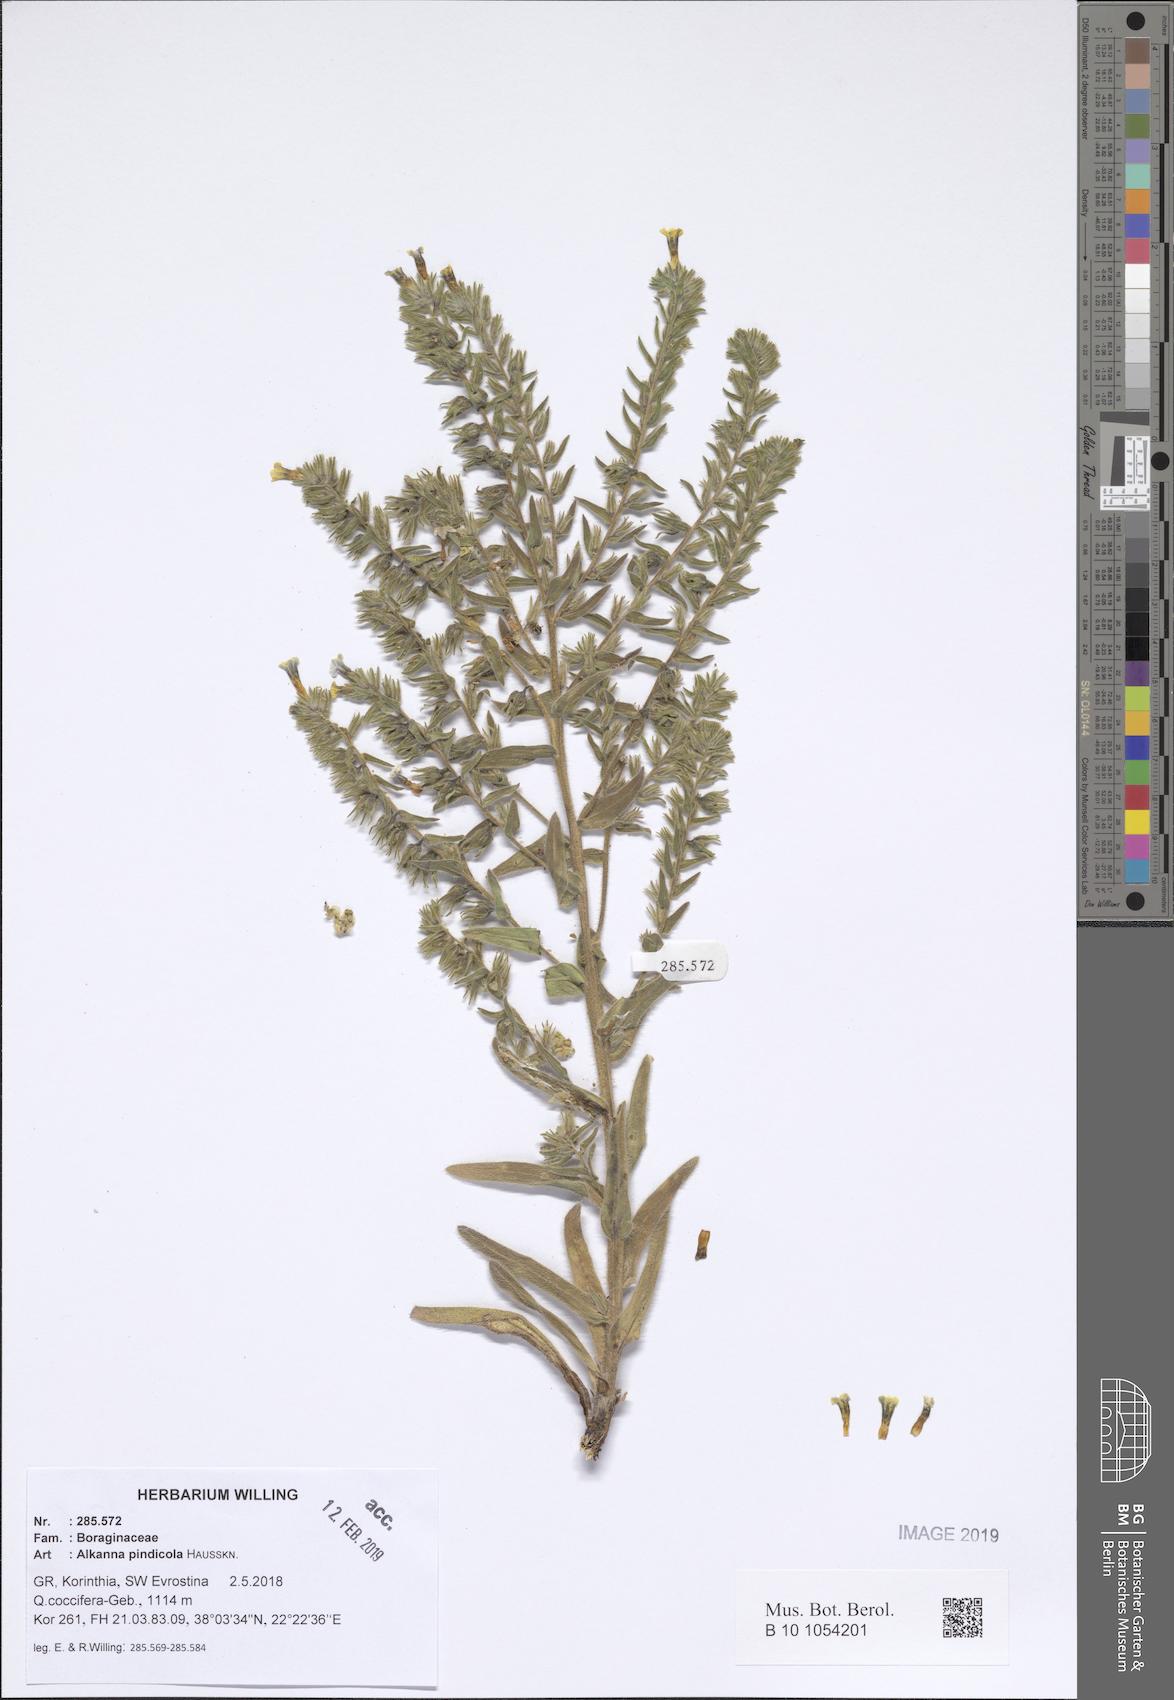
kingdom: Plantae
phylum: Tracheophyta
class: Magnoliopsida
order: Boraginales
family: Boraginaceae
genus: Alkanna
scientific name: Alkanna pindicola
